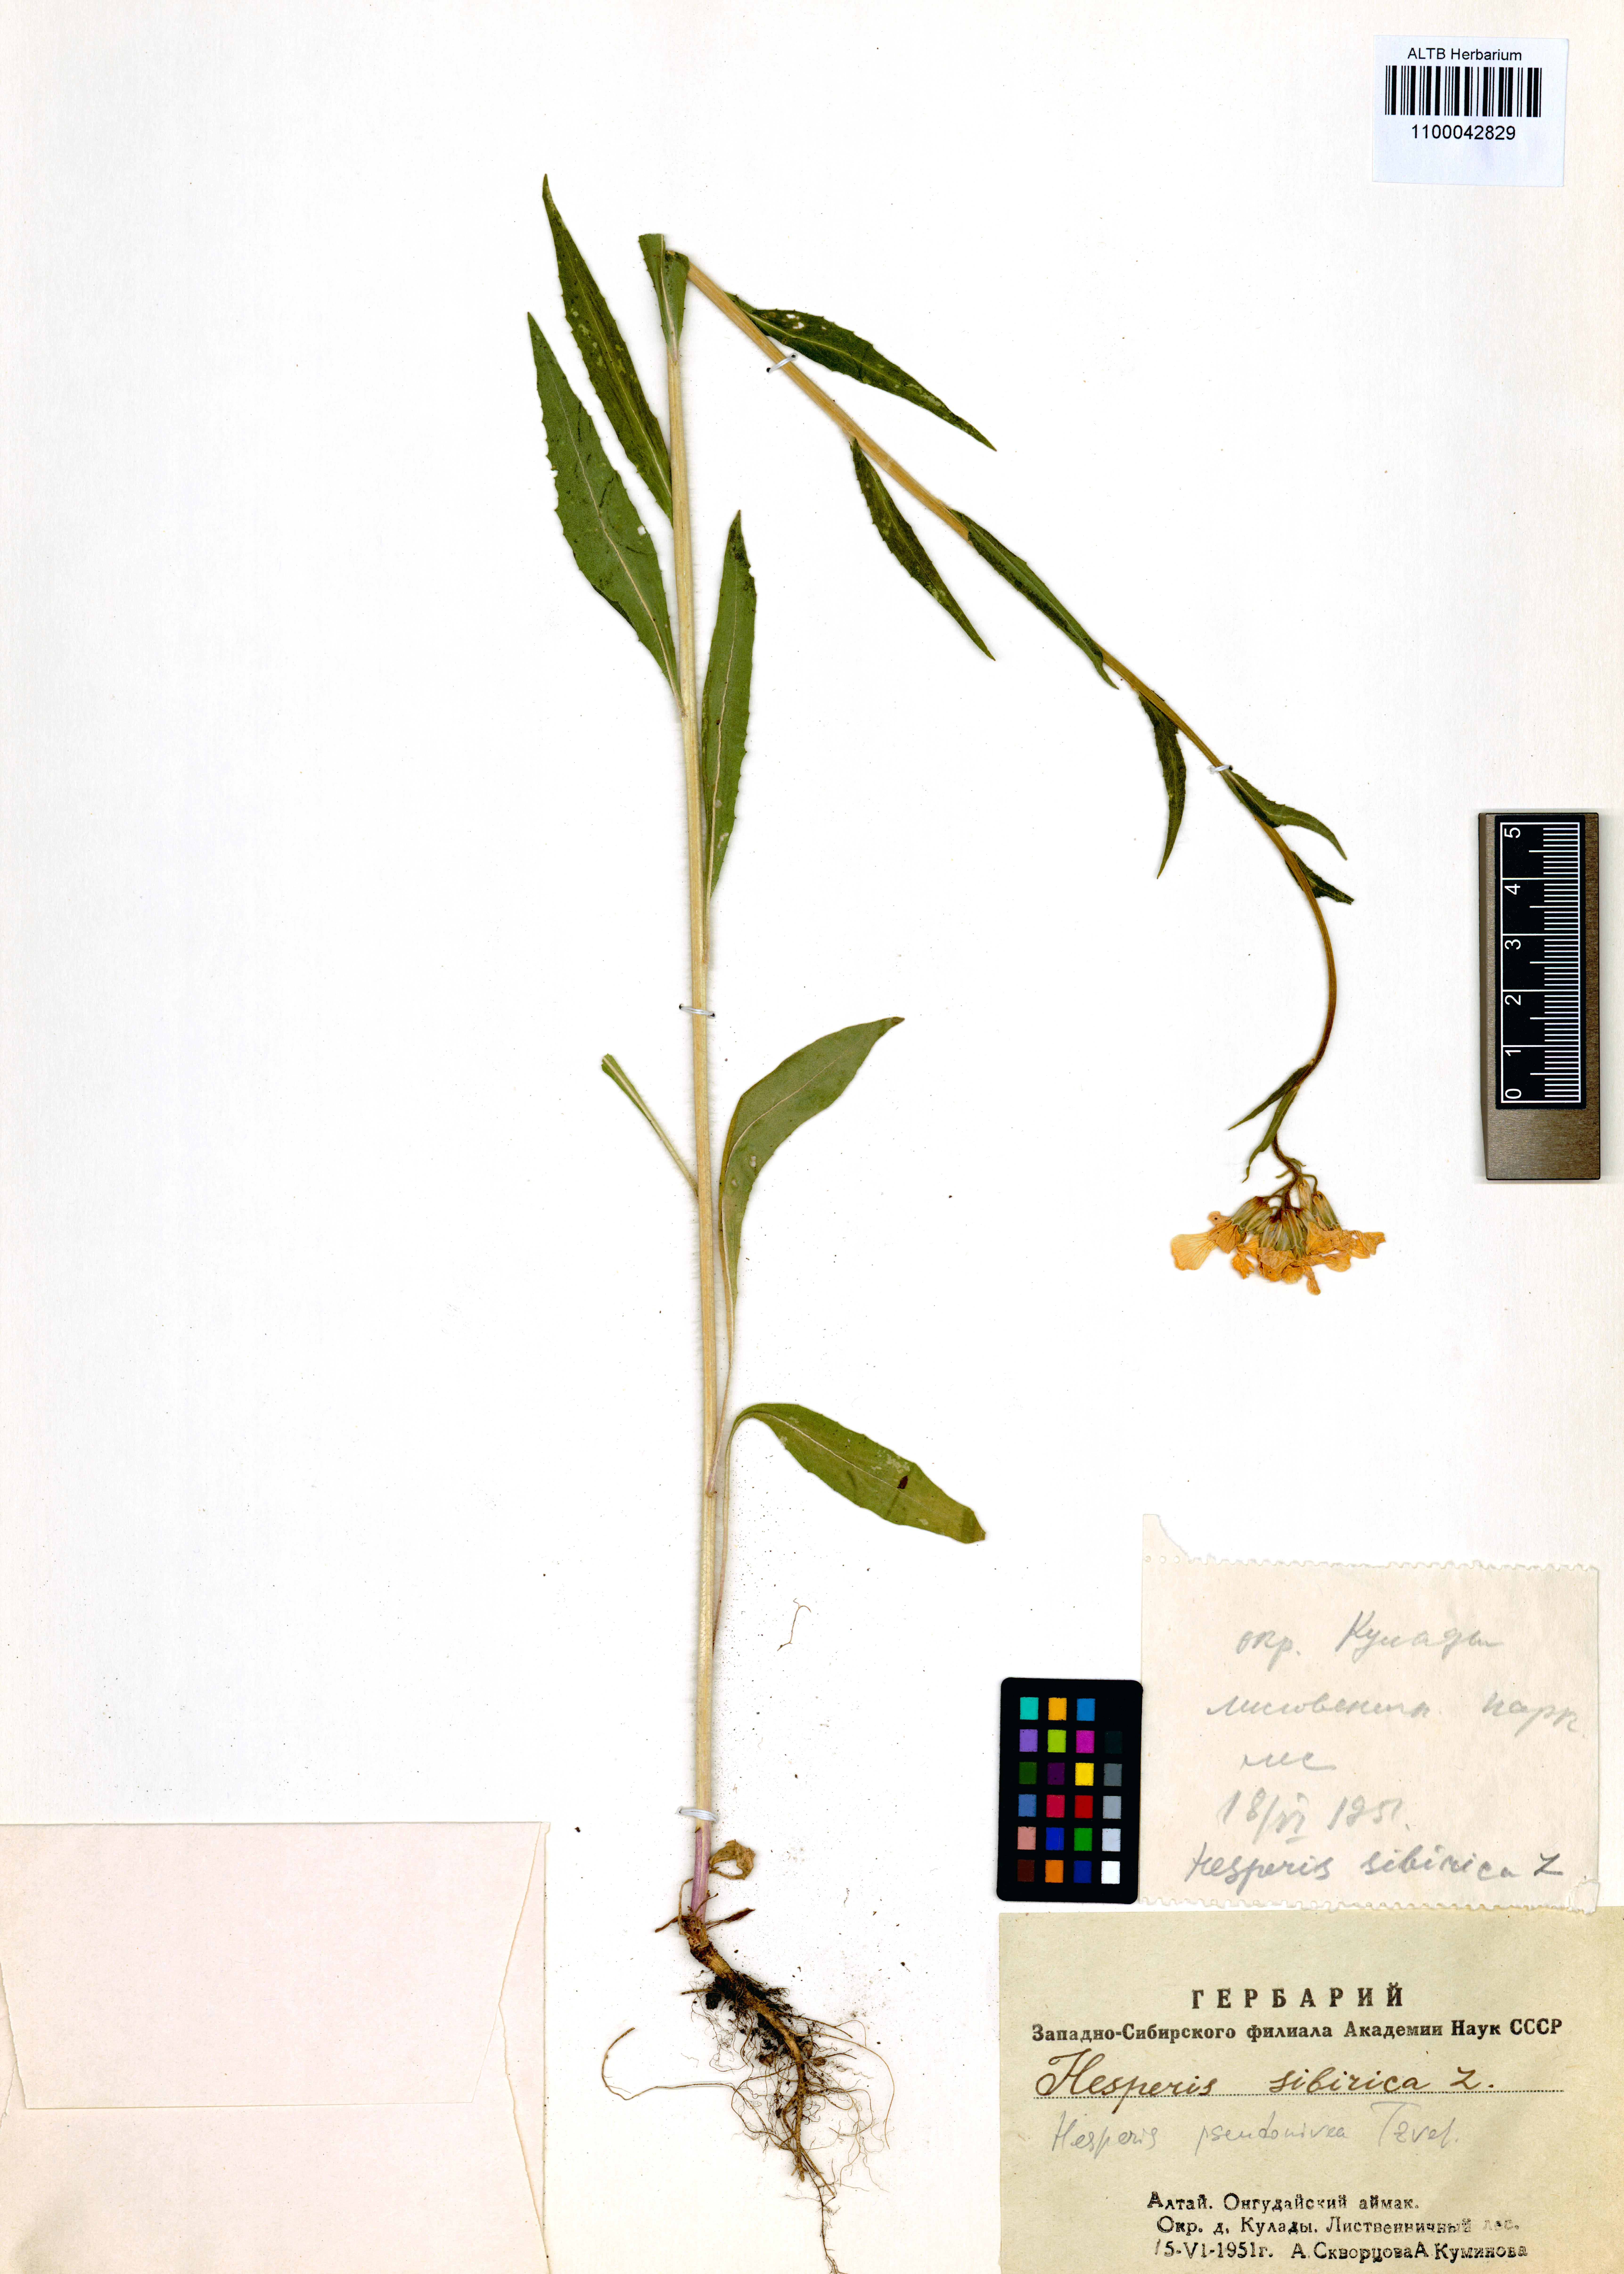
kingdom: Plantae
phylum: Tracheophyta
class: Magnoliopsida
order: Brassicales
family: Brassicaceae
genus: Hesperis
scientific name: Hesperis sibirica
